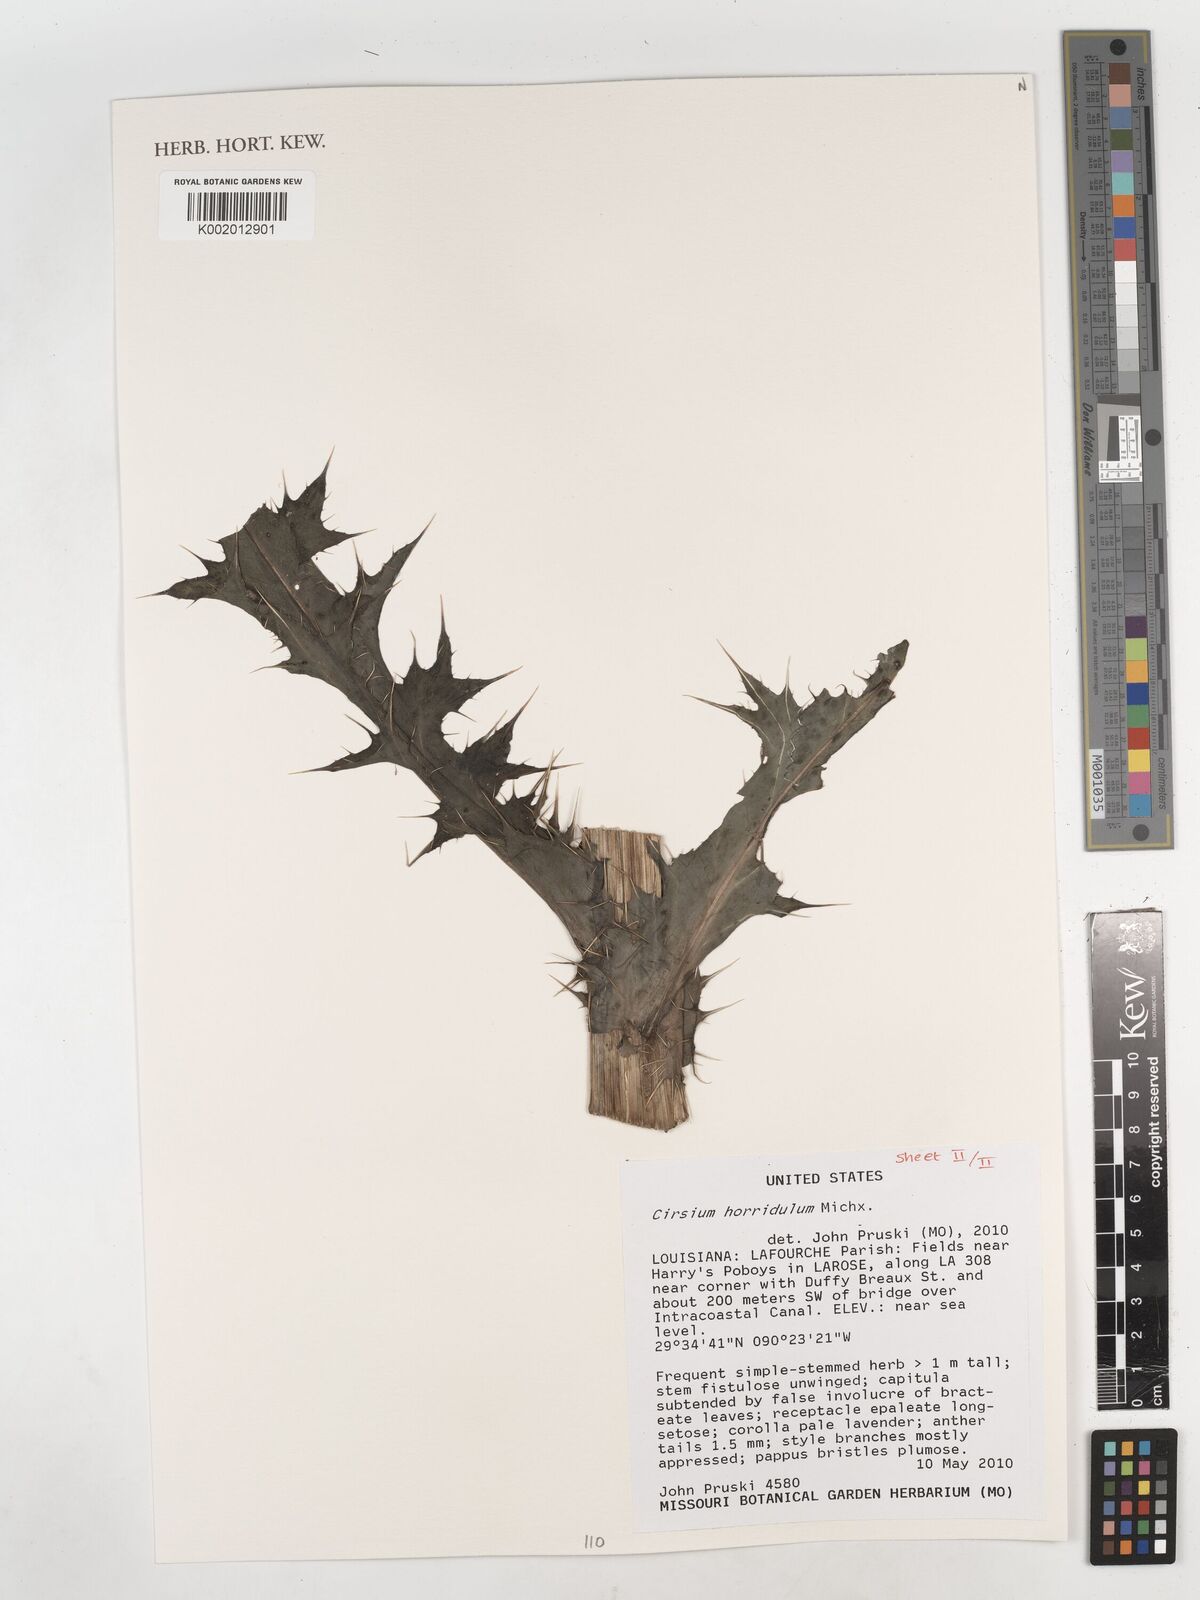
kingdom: Plantae
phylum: Tracheophyta
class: Magnoliopsida
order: Asterales
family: Asteraceae
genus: Cirsium
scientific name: Cirsium horridulum
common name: Bristly thistle
